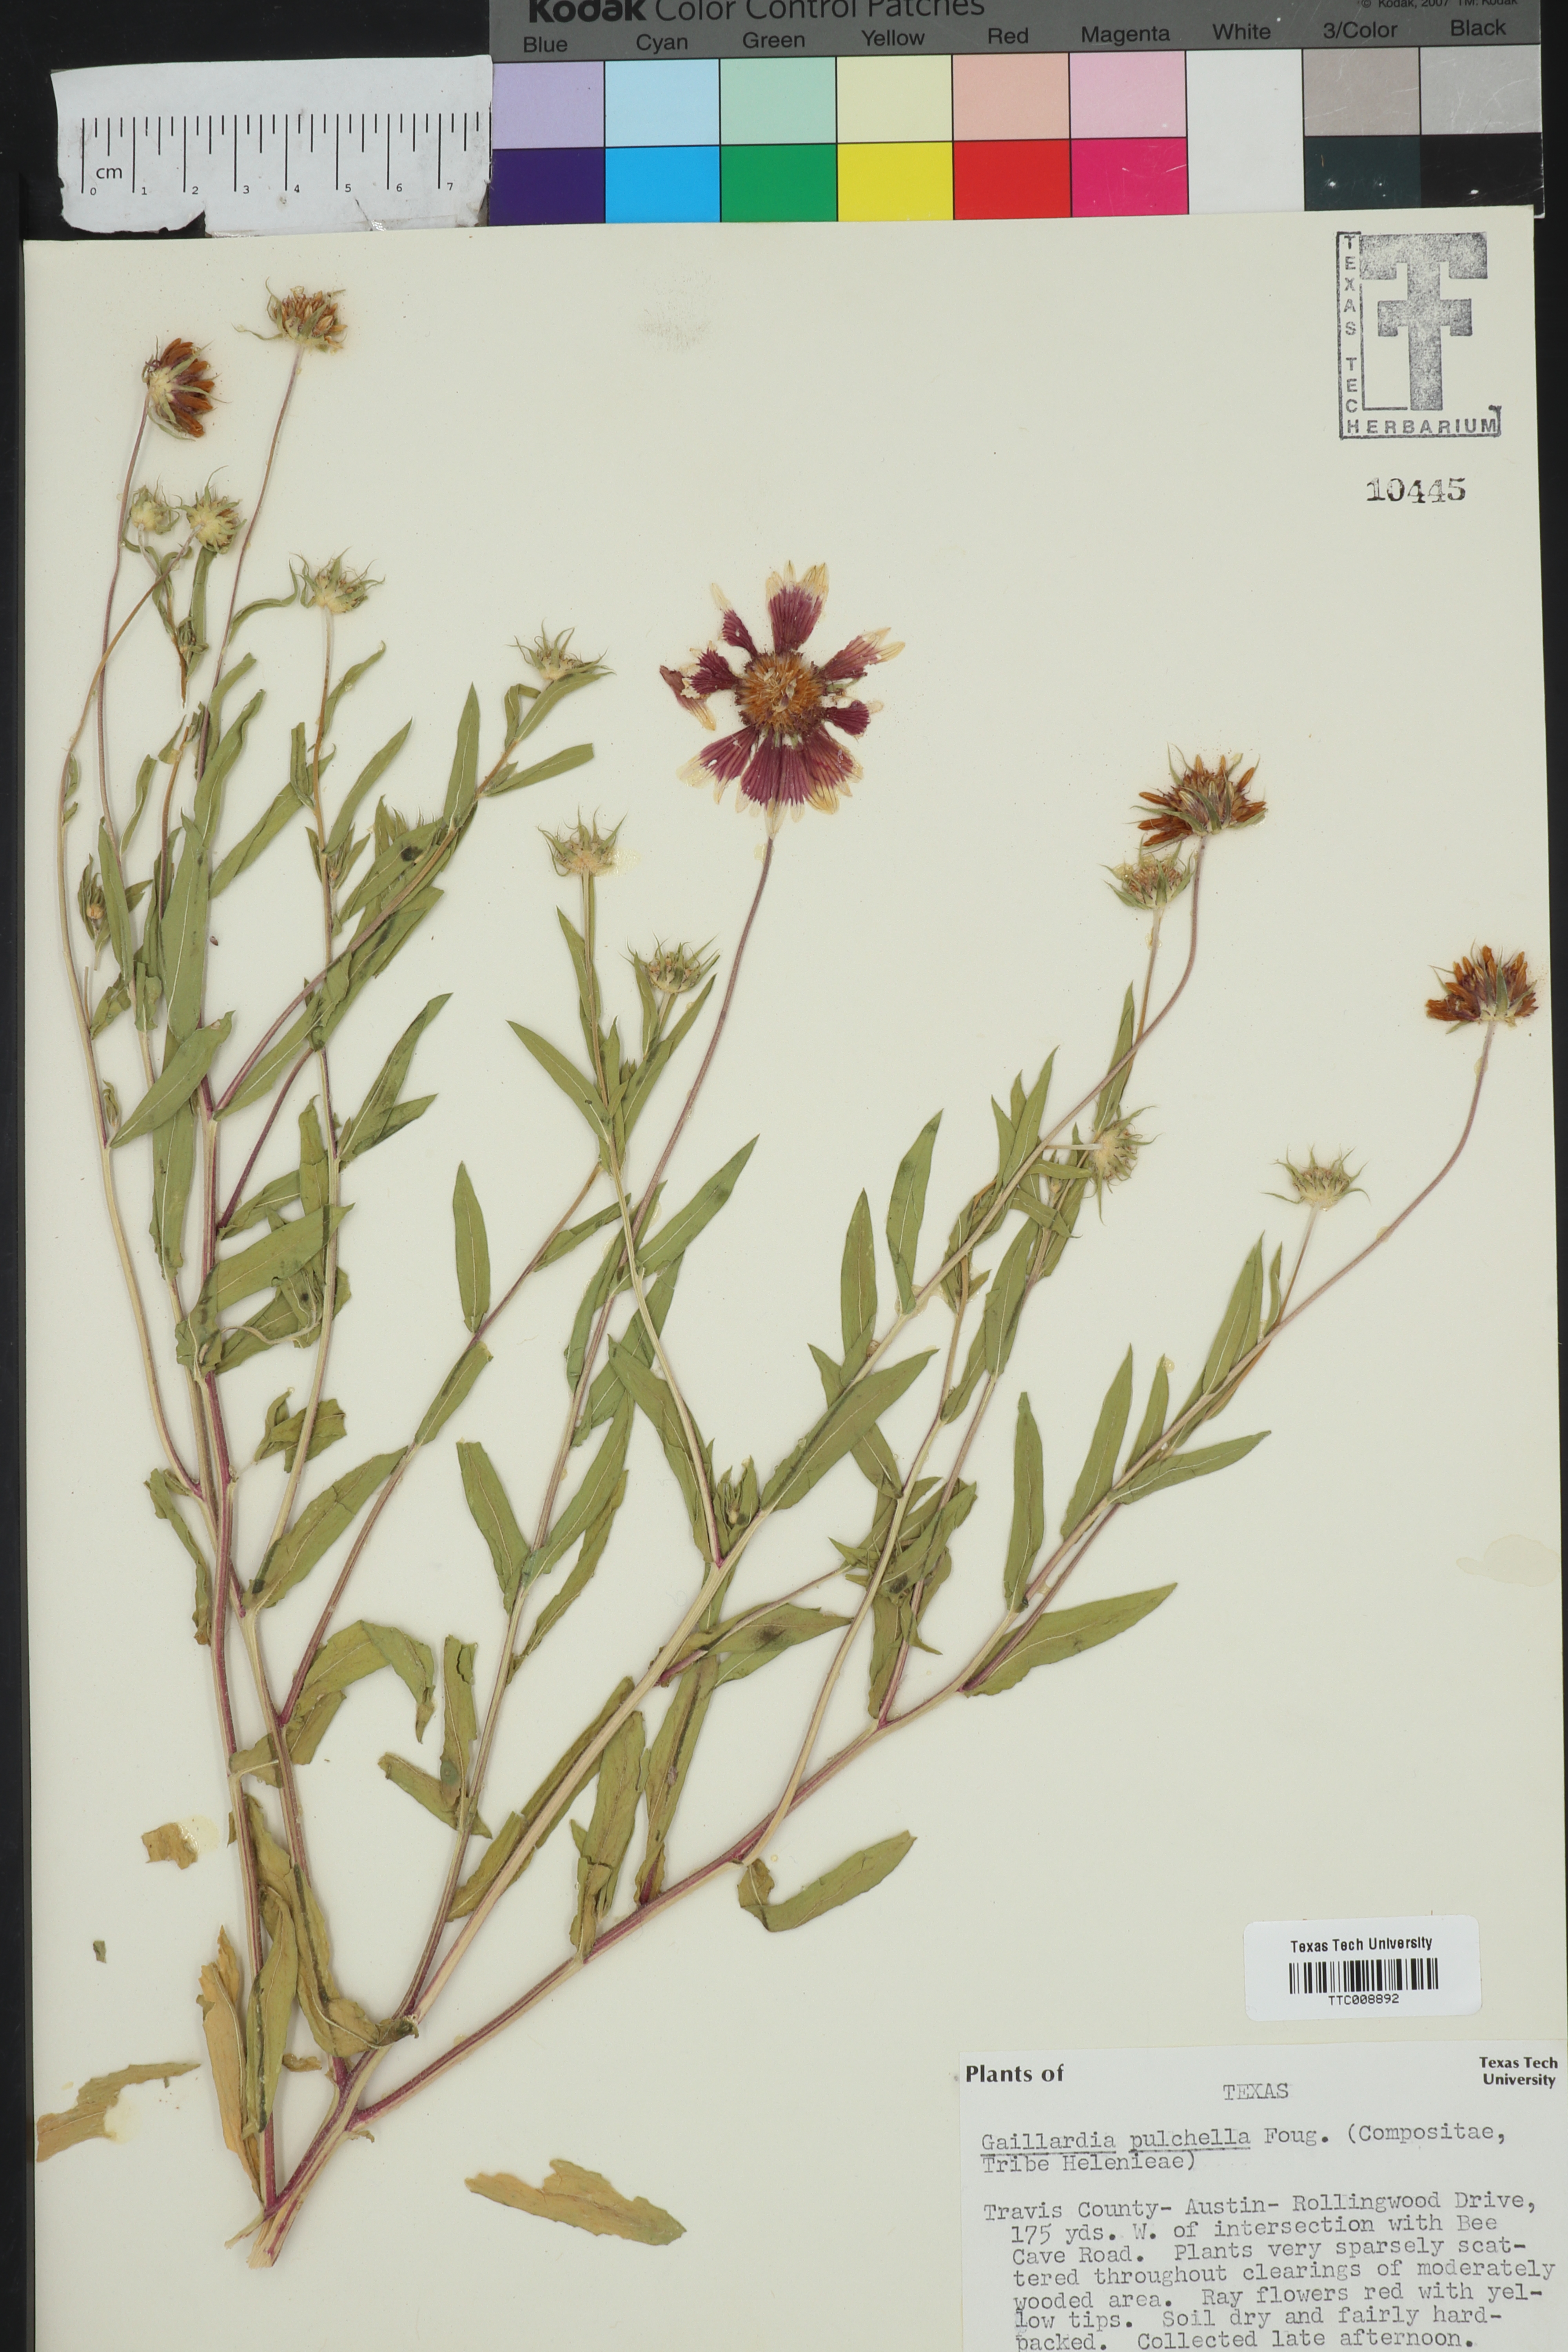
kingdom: Plantae
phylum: Tracheophyta
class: Magnoliopsida
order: Asterales
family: Asteraceae
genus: Gaillardia
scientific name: Gaillardia pulchella
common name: Firewheel
